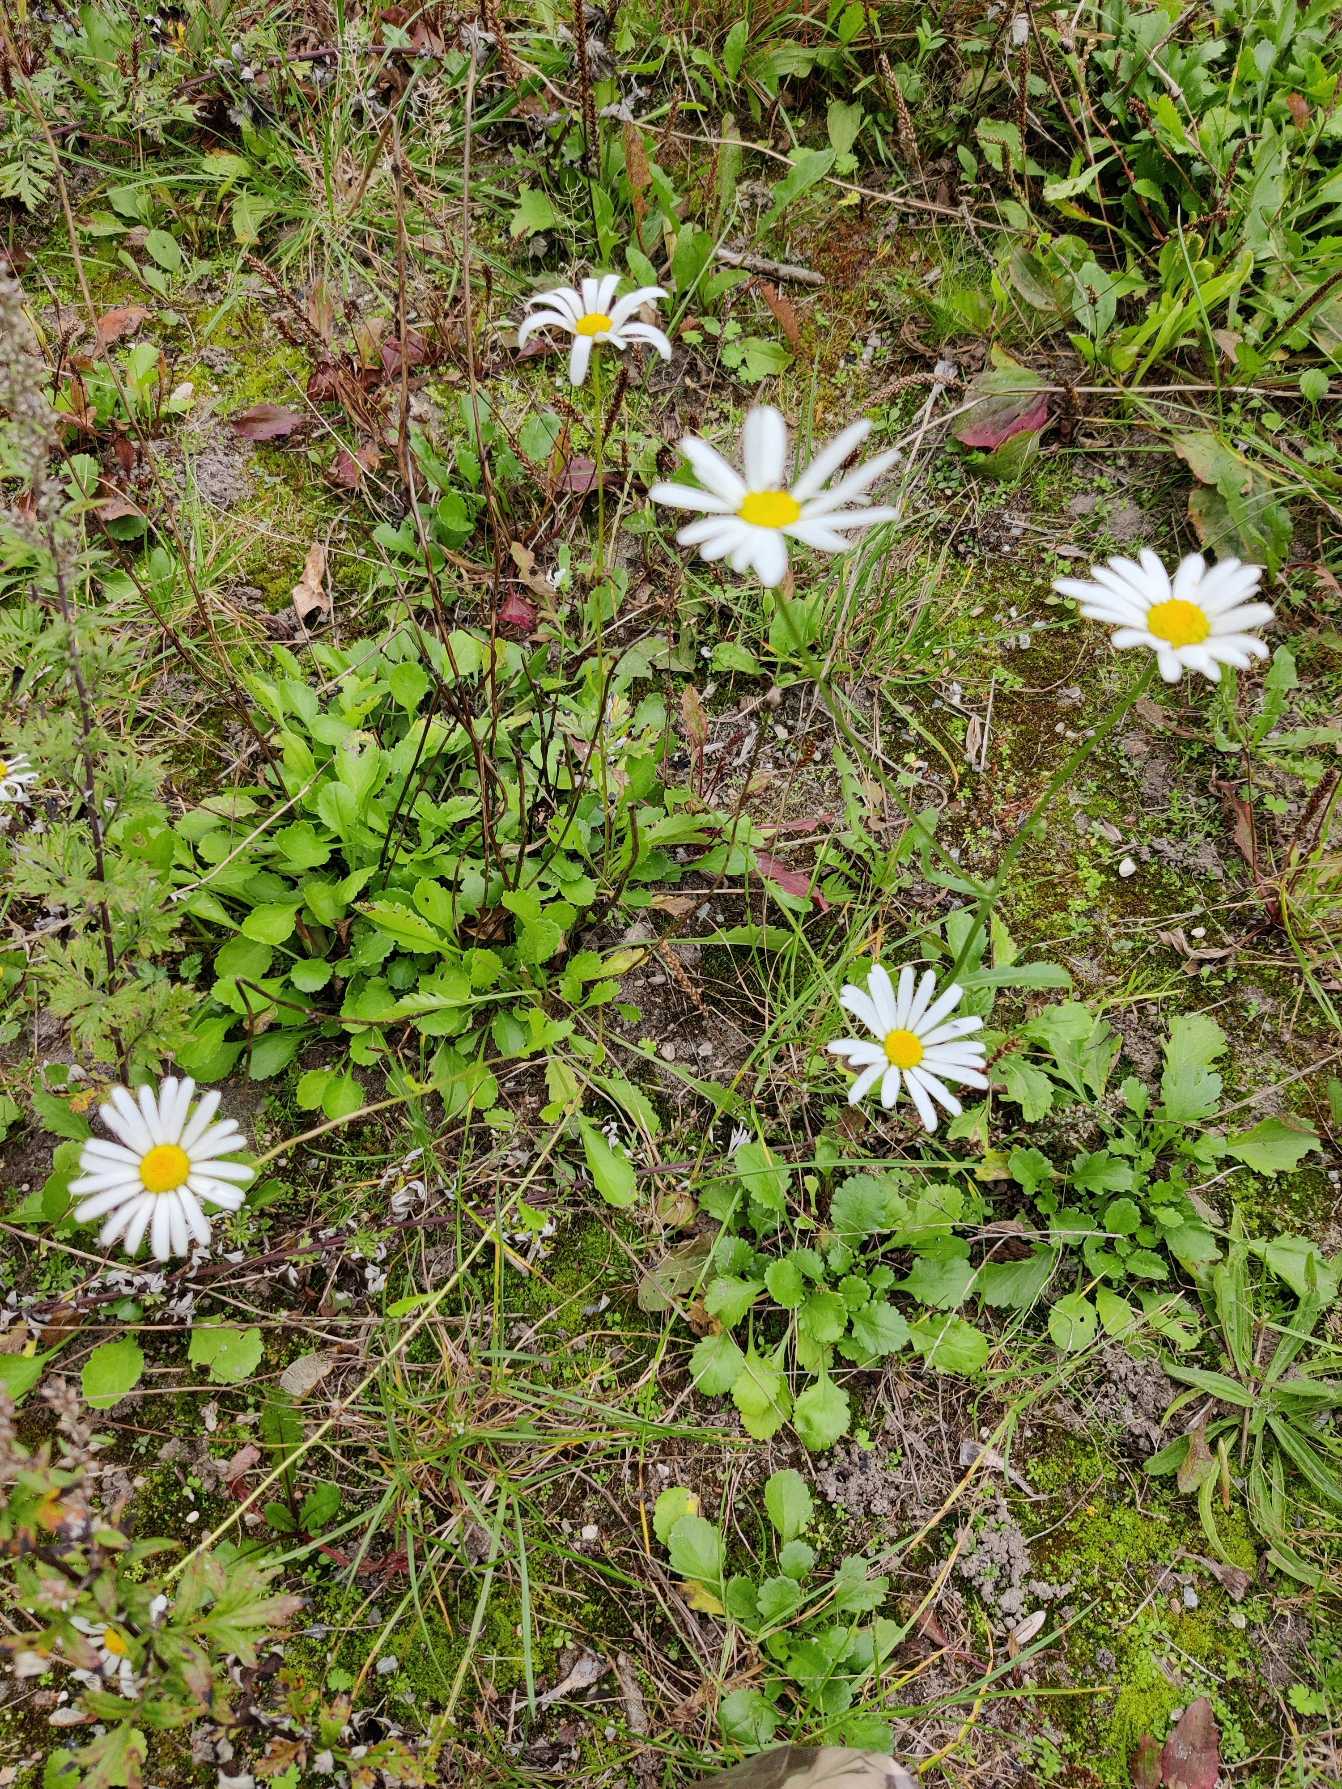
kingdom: Plantae
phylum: Tracheophyta
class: Magnoliopsida
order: Asterales
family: Asteraceae
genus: Leucanthemum
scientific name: Leucanthemum vulgare
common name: Hvid okseøje
